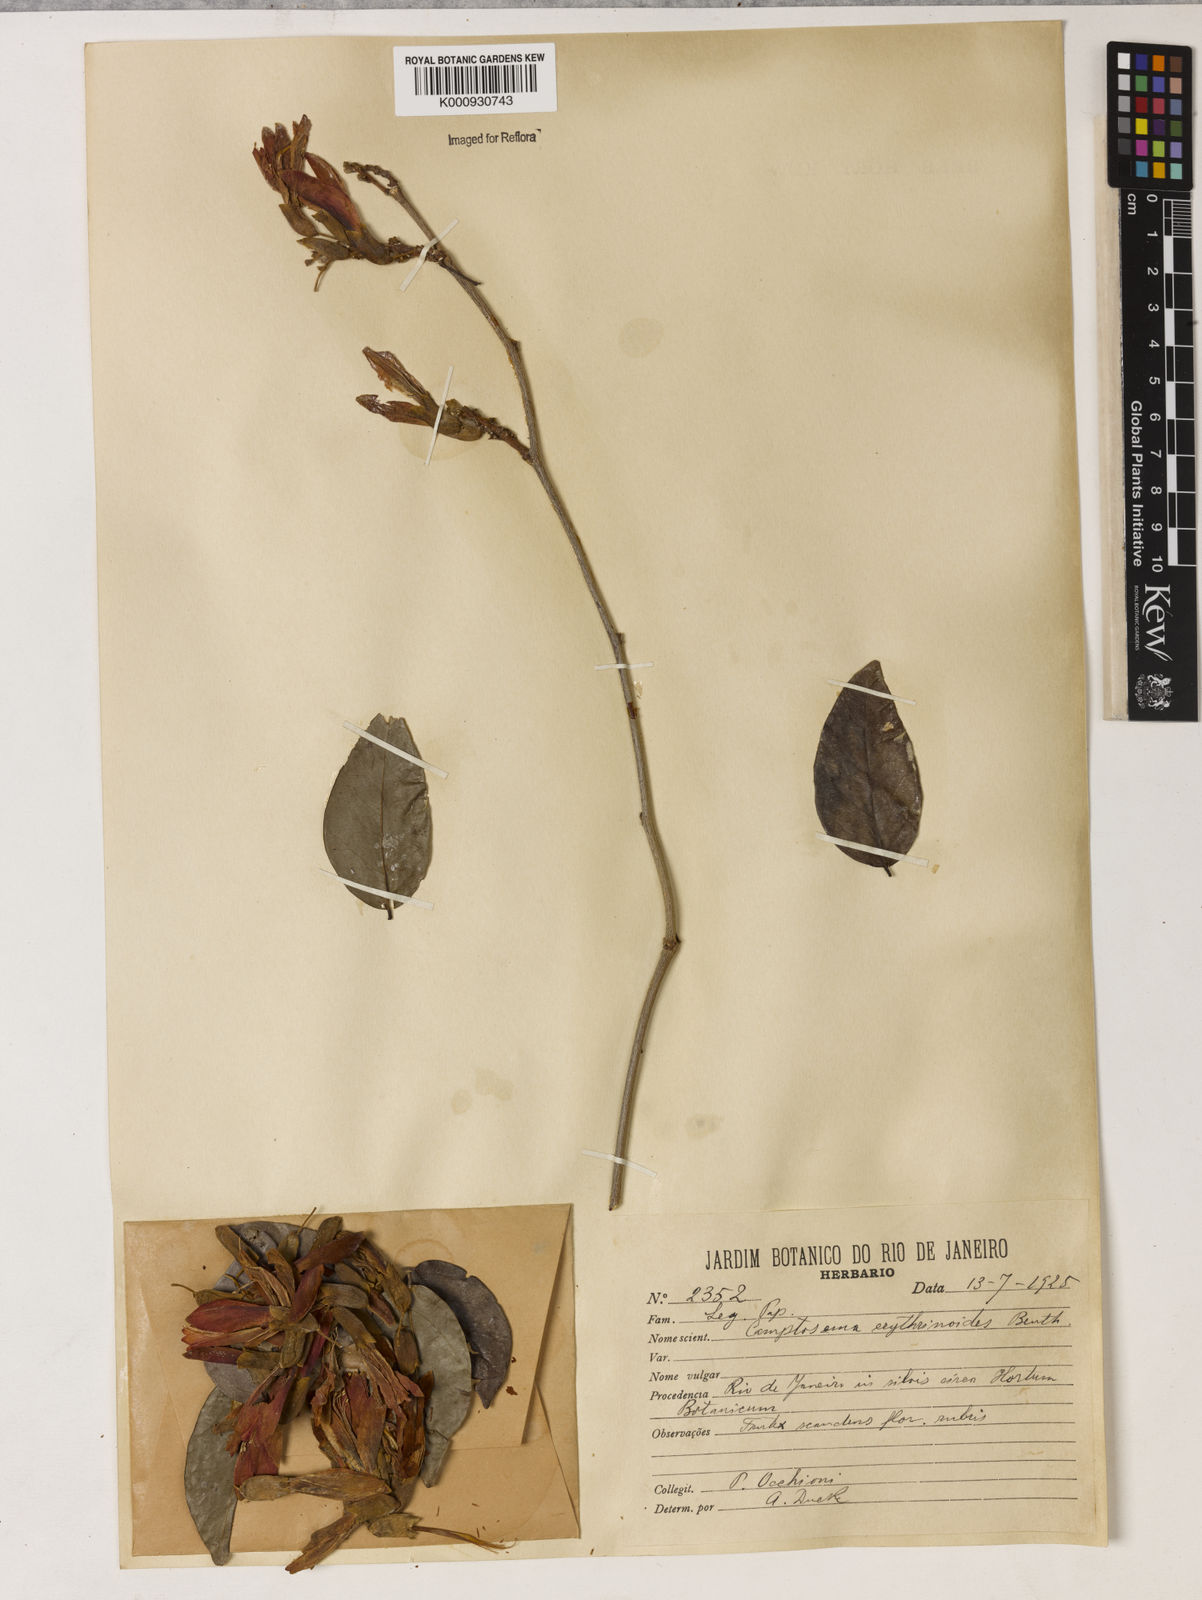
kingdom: Plantae
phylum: Tracheophyta
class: Magnoliopsida
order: Fabales
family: Fabaceae
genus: Cratylia
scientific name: Cratylia isopetala
